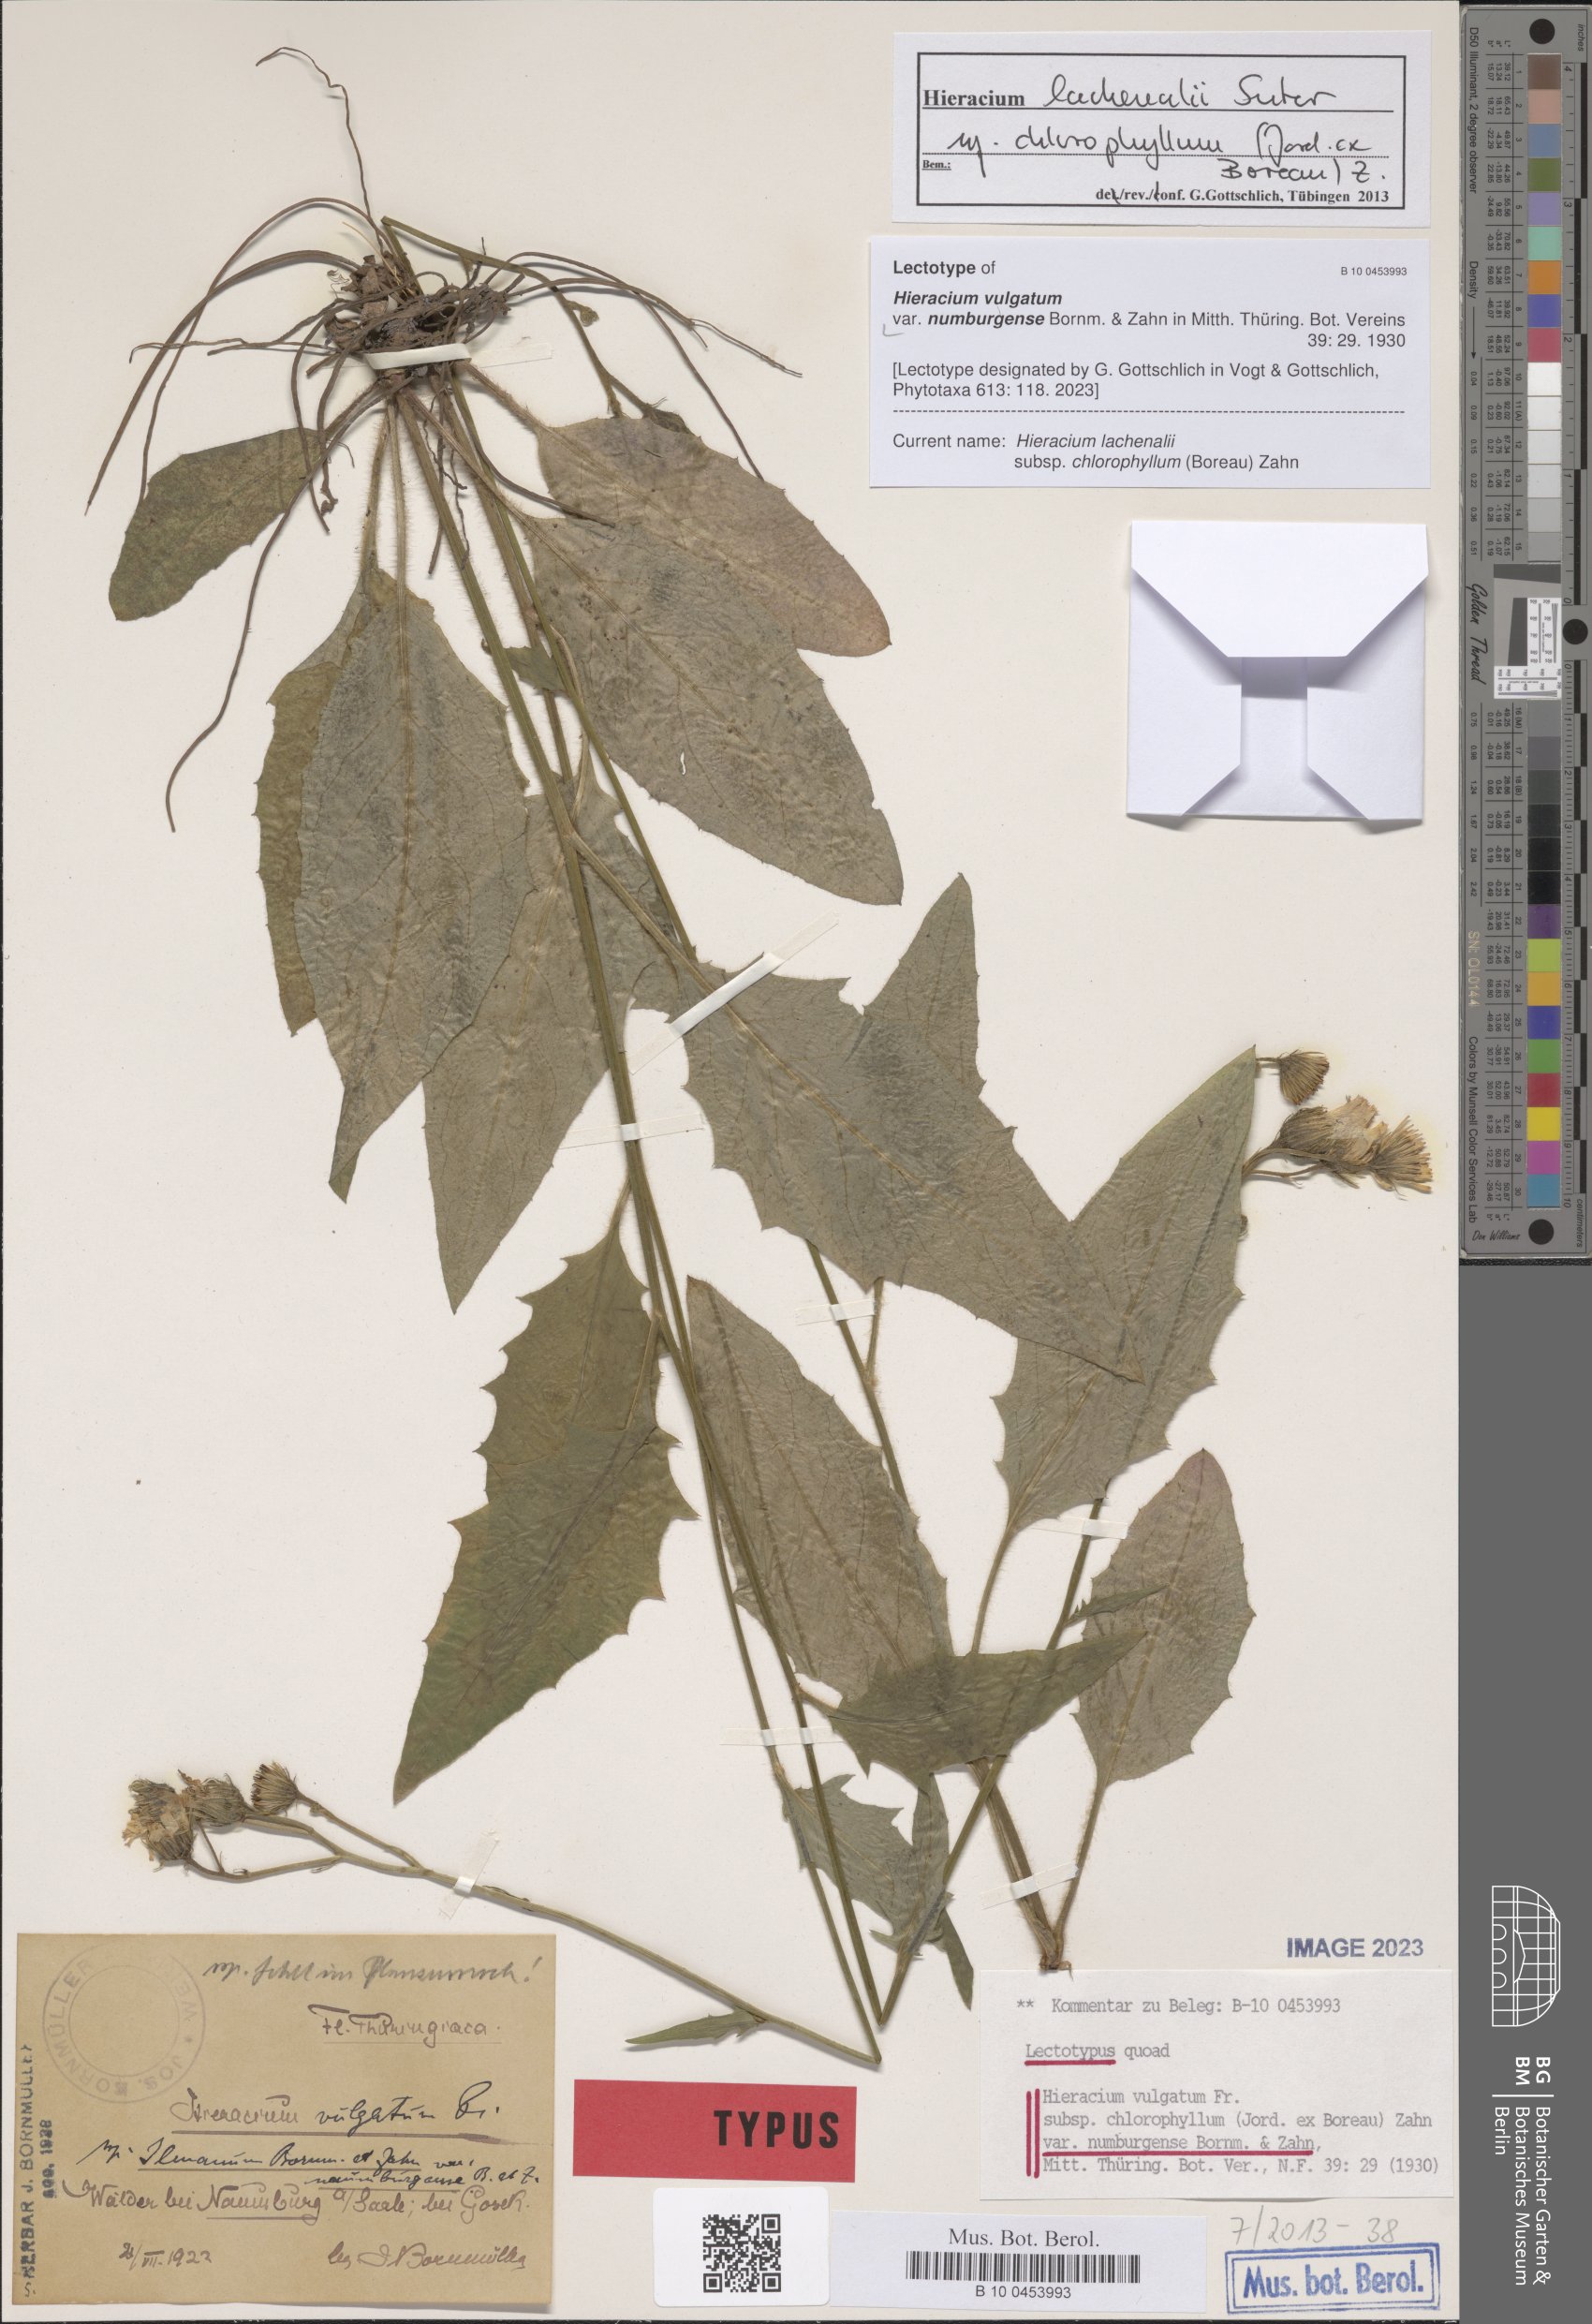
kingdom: Plantae
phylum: Tracheophyta
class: Magnoliopsida
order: Asterales
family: Asteraceae
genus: Hieracium
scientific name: Hieracium vulgatum
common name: Common hawkweed
